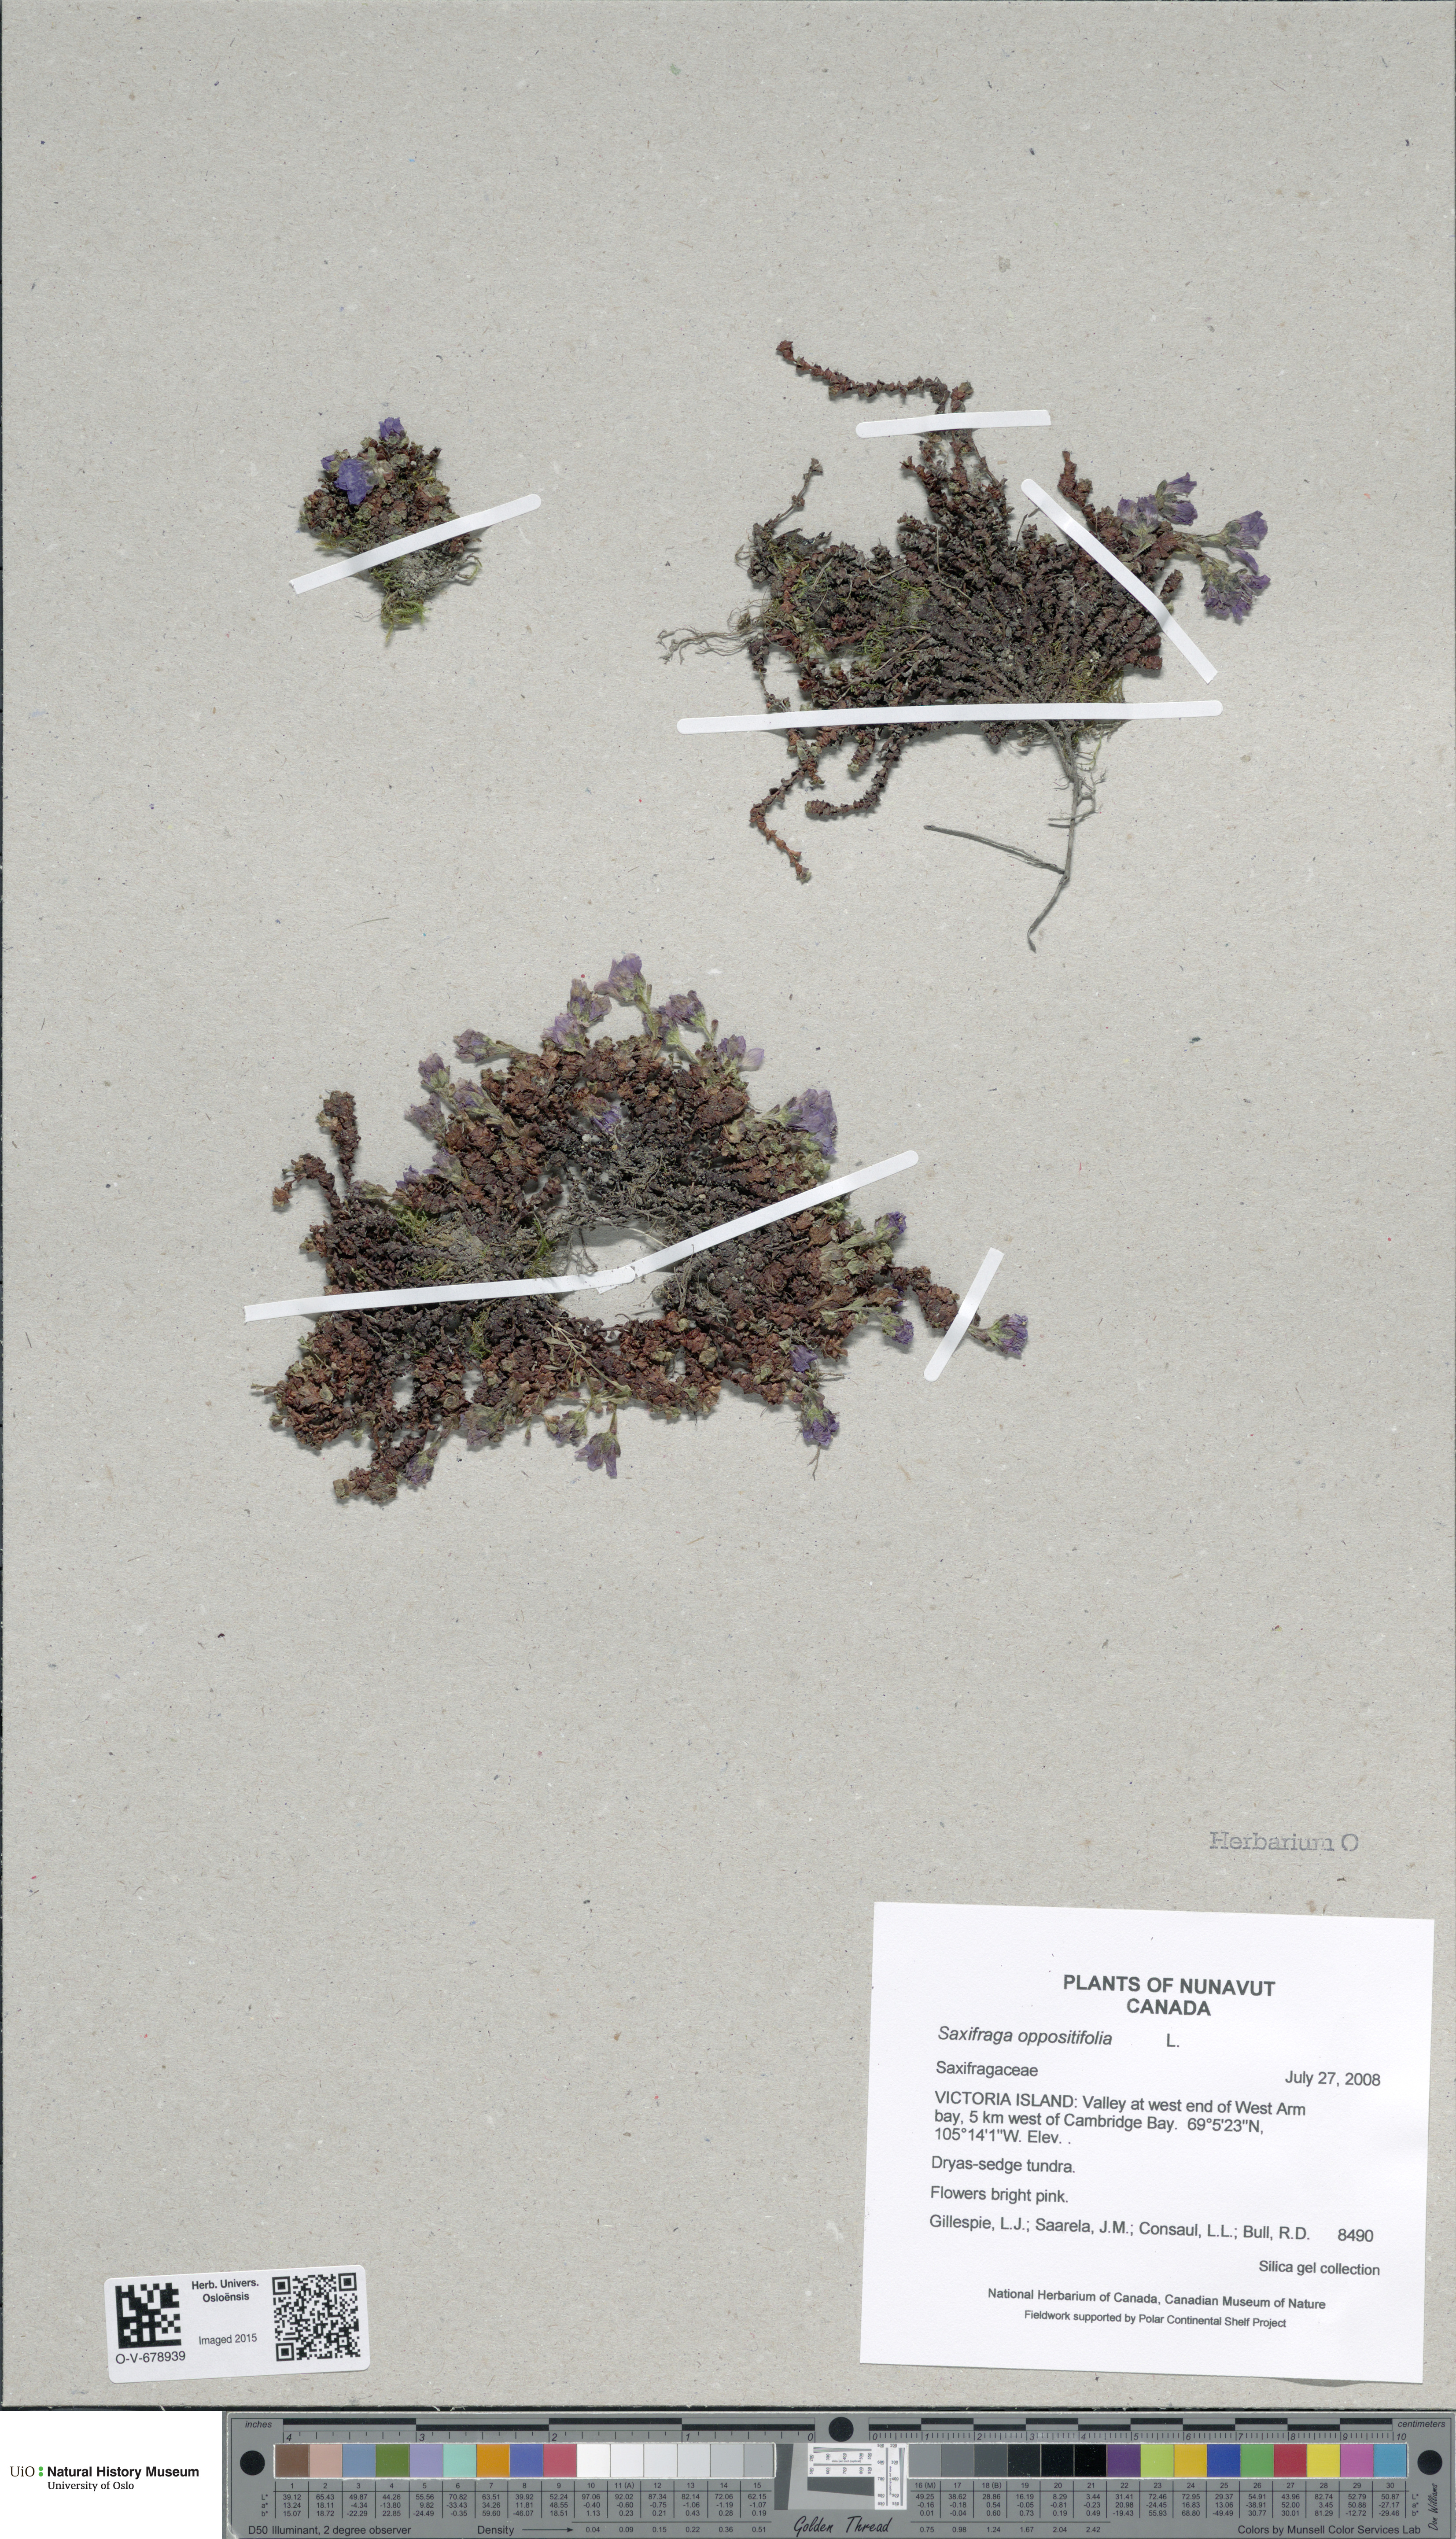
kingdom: Plantae
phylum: Tracheophyta
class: Magnoliopsida
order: Saxifragales
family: Saxifragaceae
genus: Saxifraga
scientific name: Saxifraga oppositifolia
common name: Purple saxifrage
